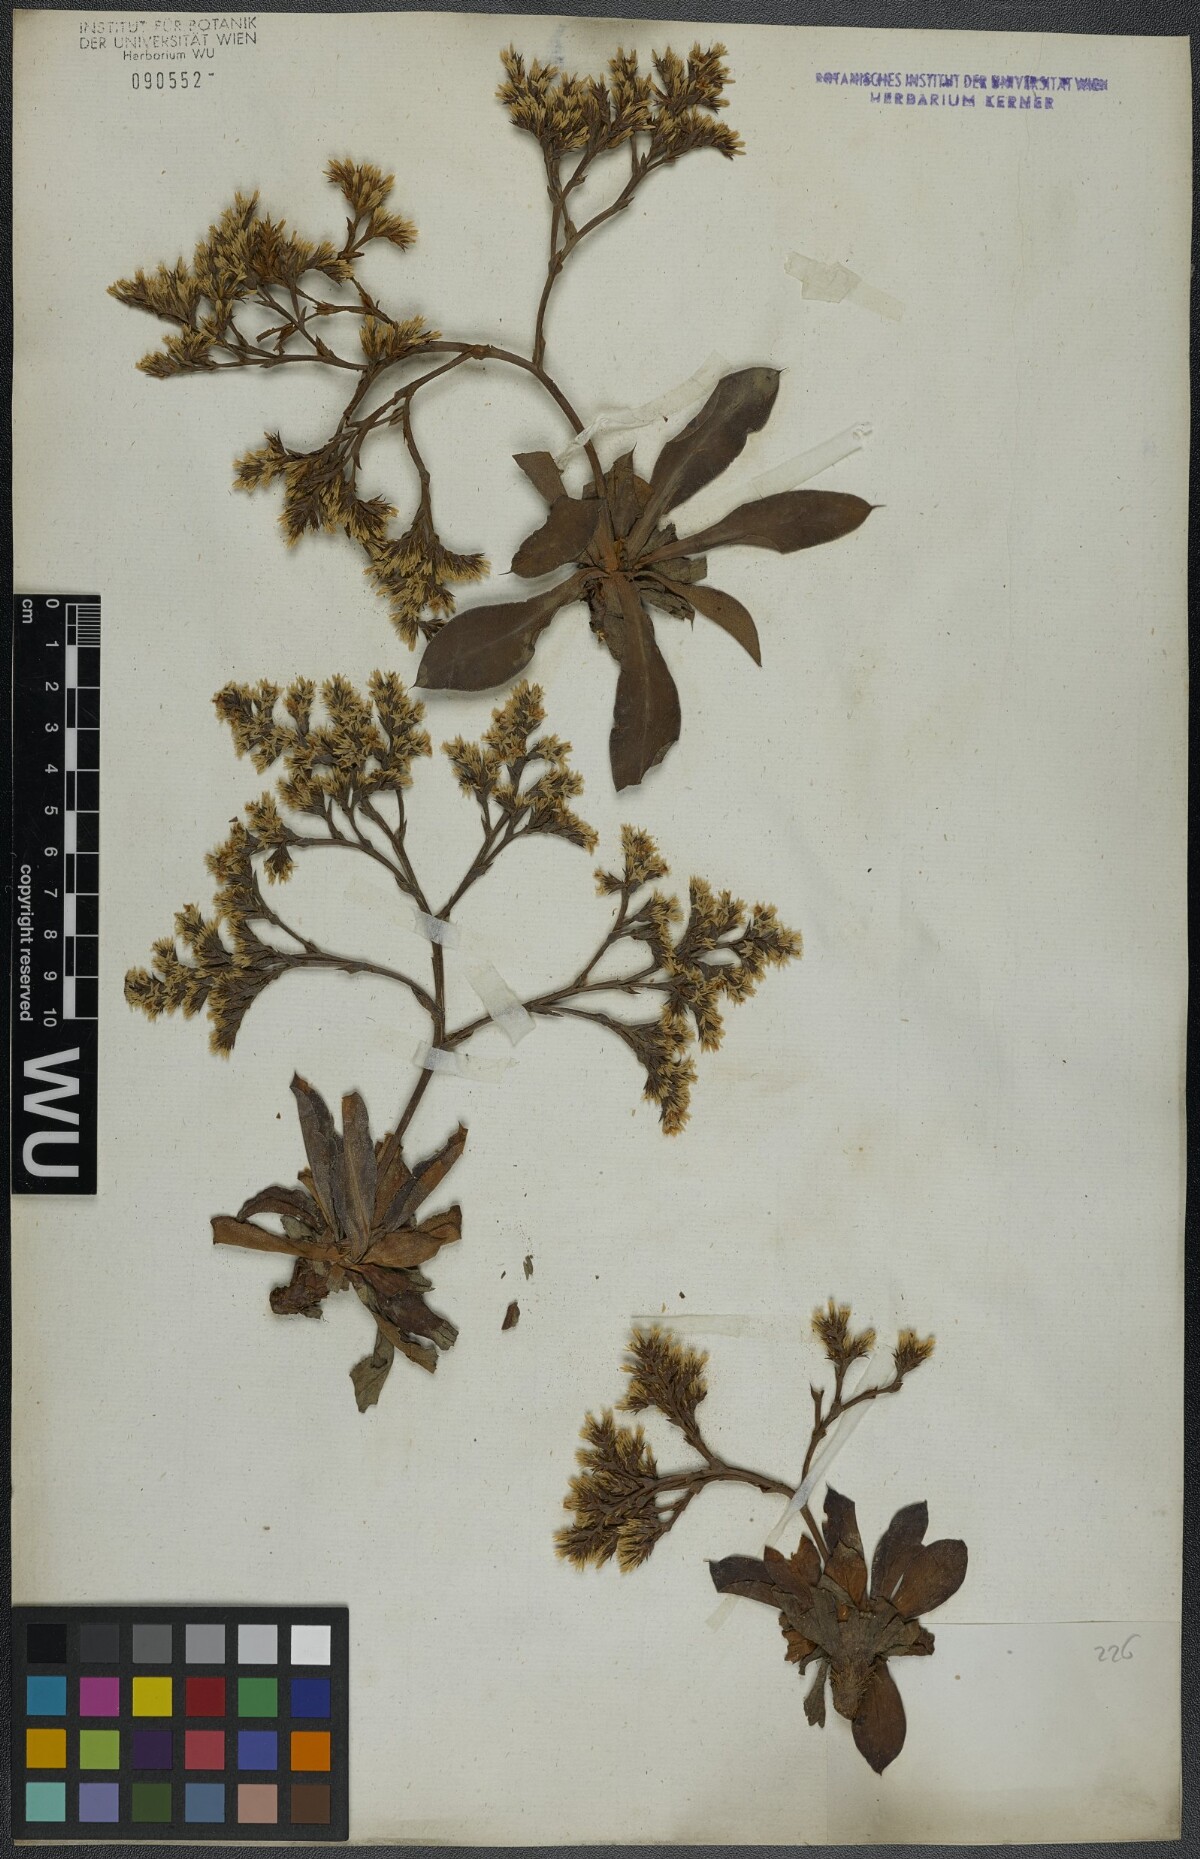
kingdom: Plantae
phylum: Tracheophyta
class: Magnoliopsida
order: Caryophyllales
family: Plumbaginaceae
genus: Goniolimon
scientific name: Goniolimon tataricum
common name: Statice
